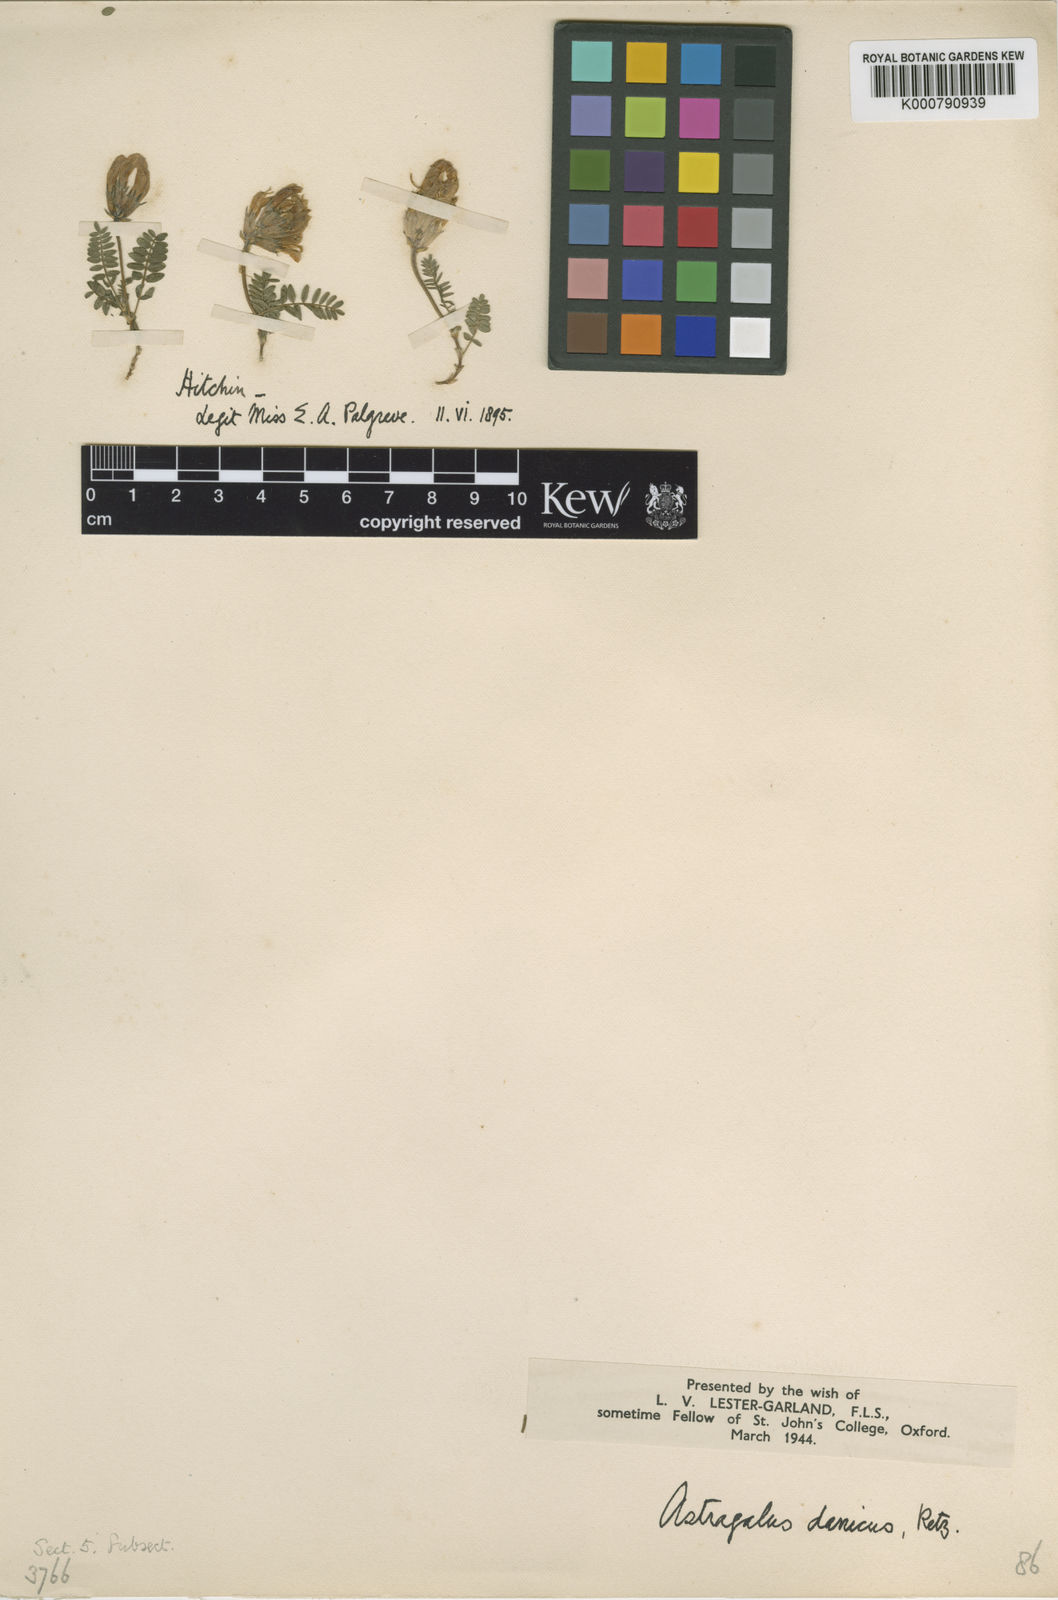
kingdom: Plantae
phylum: Tracheophyta
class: Magnoliopsida
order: Fabales
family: Fabaceae
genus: Astragalus
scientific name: Astragalus danicus
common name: Purple milk-vetch
